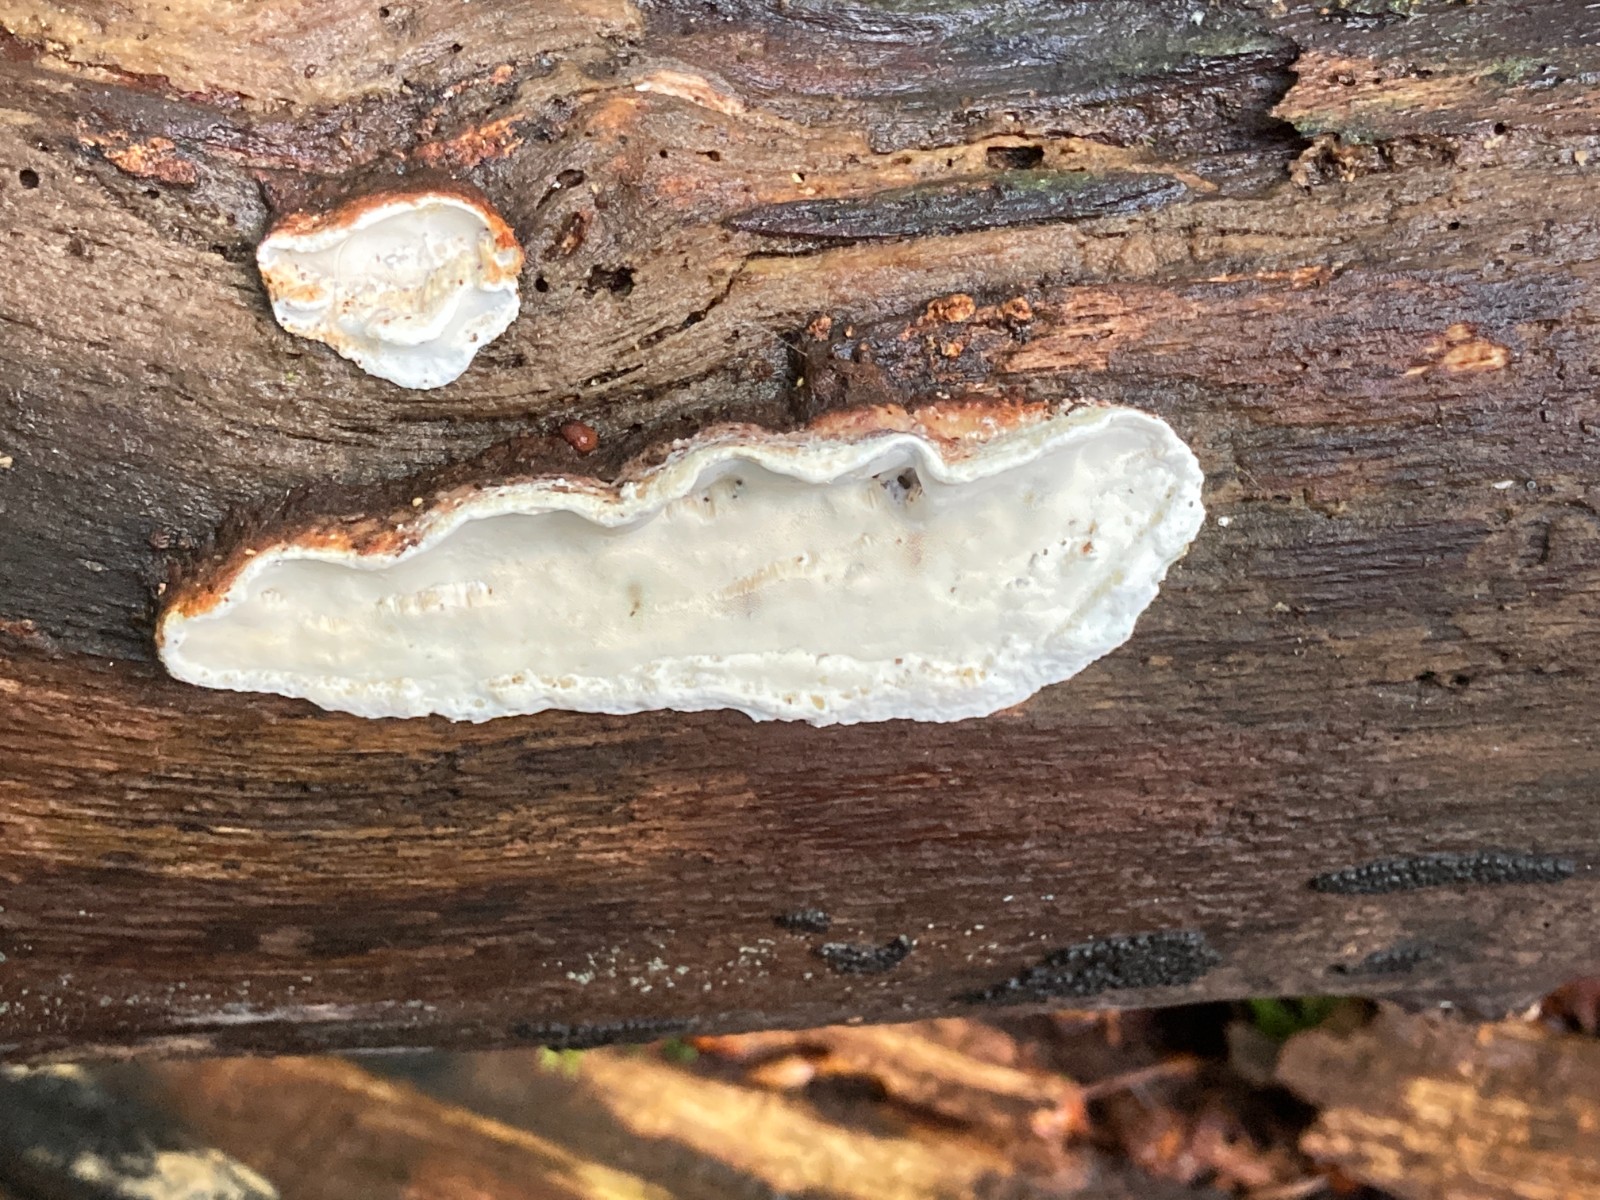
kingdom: Fungi
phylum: Basidiomycota
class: Agaricomycetes
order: Polyporales
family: Incrustoporiaceae
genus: Skeletocutis
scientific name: Skeletocutis nemoralis
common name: stor krystalporesvamp
